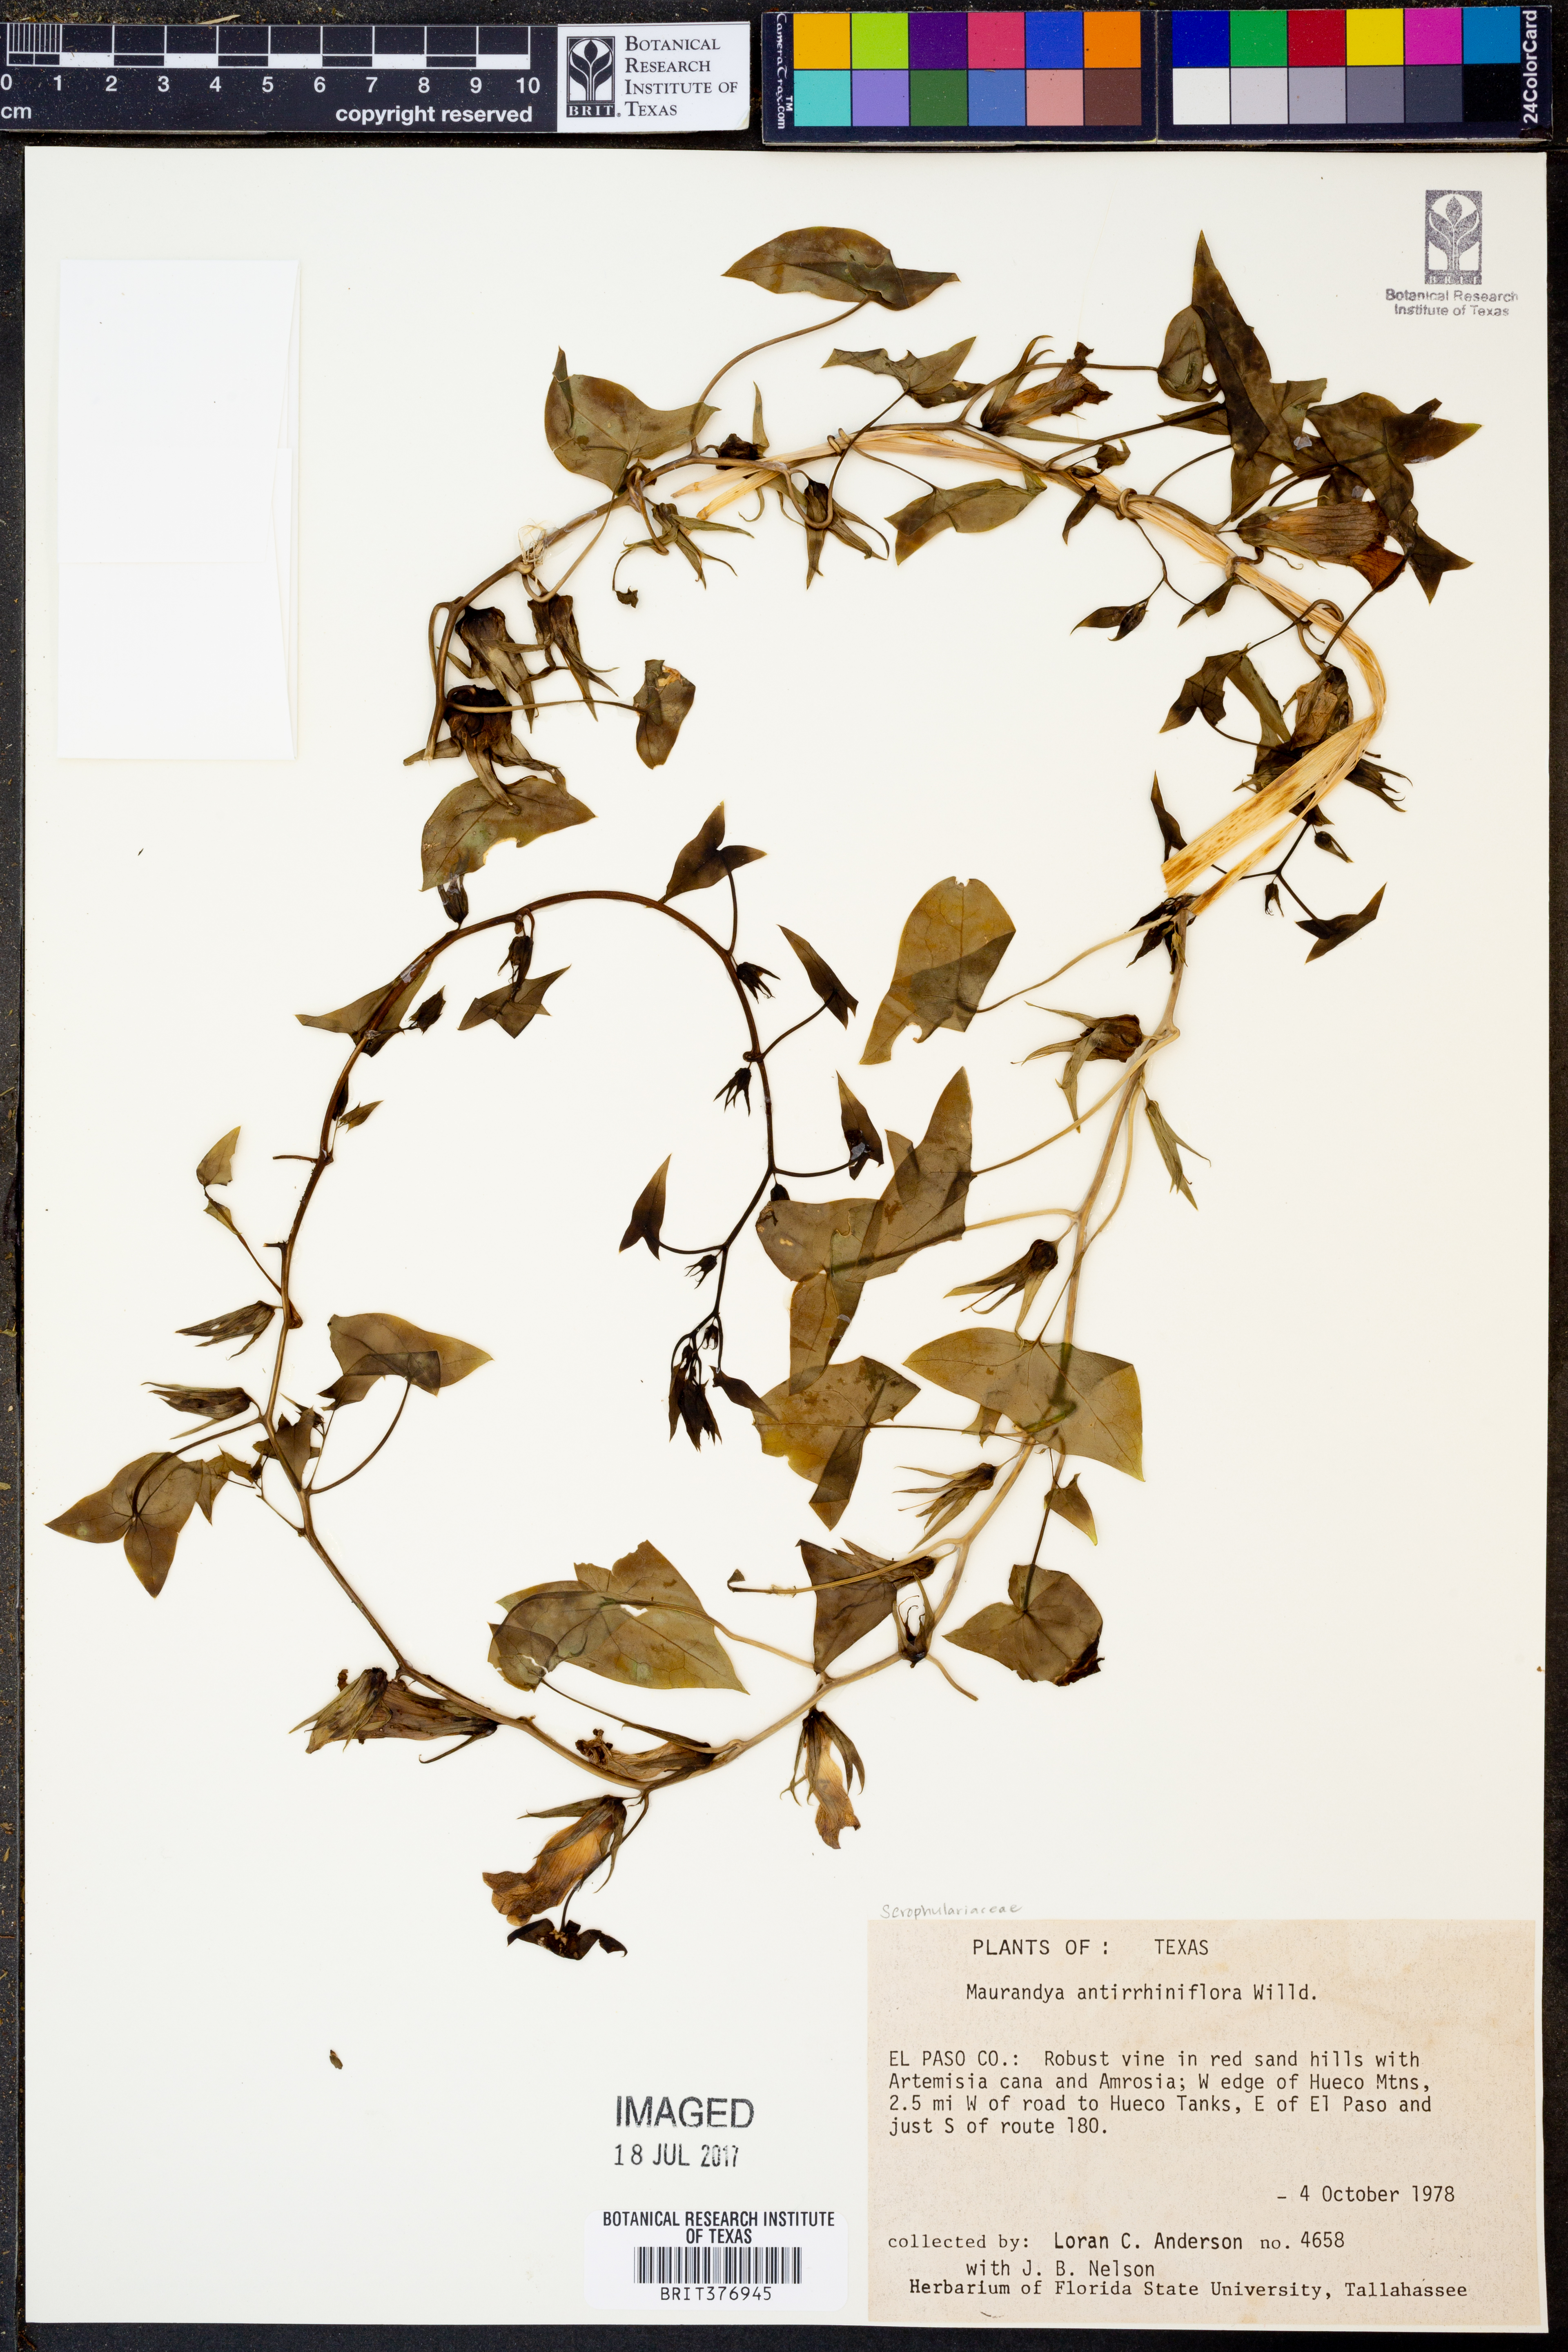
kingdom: Plantae
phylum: Tracheophyta
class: Magnoliopsida
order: Lamiales
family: Plantaginaceae
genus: Maurandella
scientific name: Maurandella antirrhiniflora
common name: Violet twining-snapdragon
